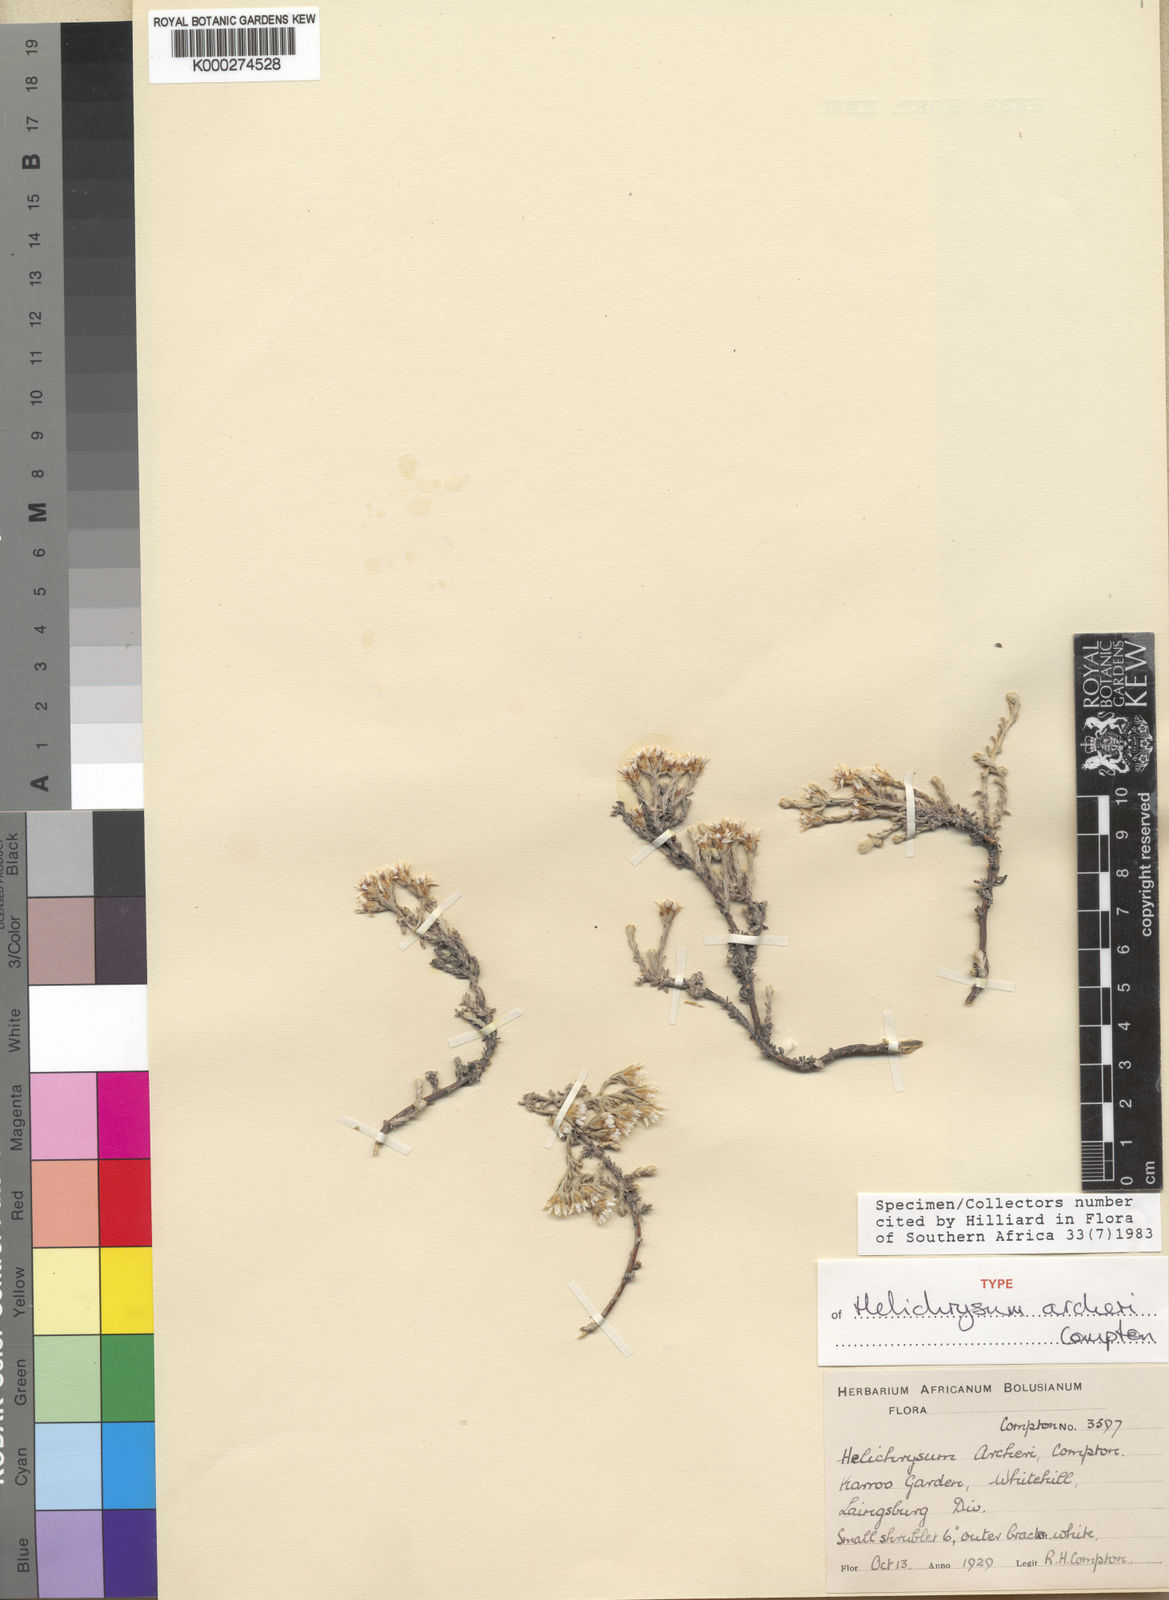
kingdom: Plantae
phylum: Tracheophyta
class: Magnoliopsida
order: Asterales
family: Asteraceae
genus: Helichrysum
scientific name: Helichrysum archeri
